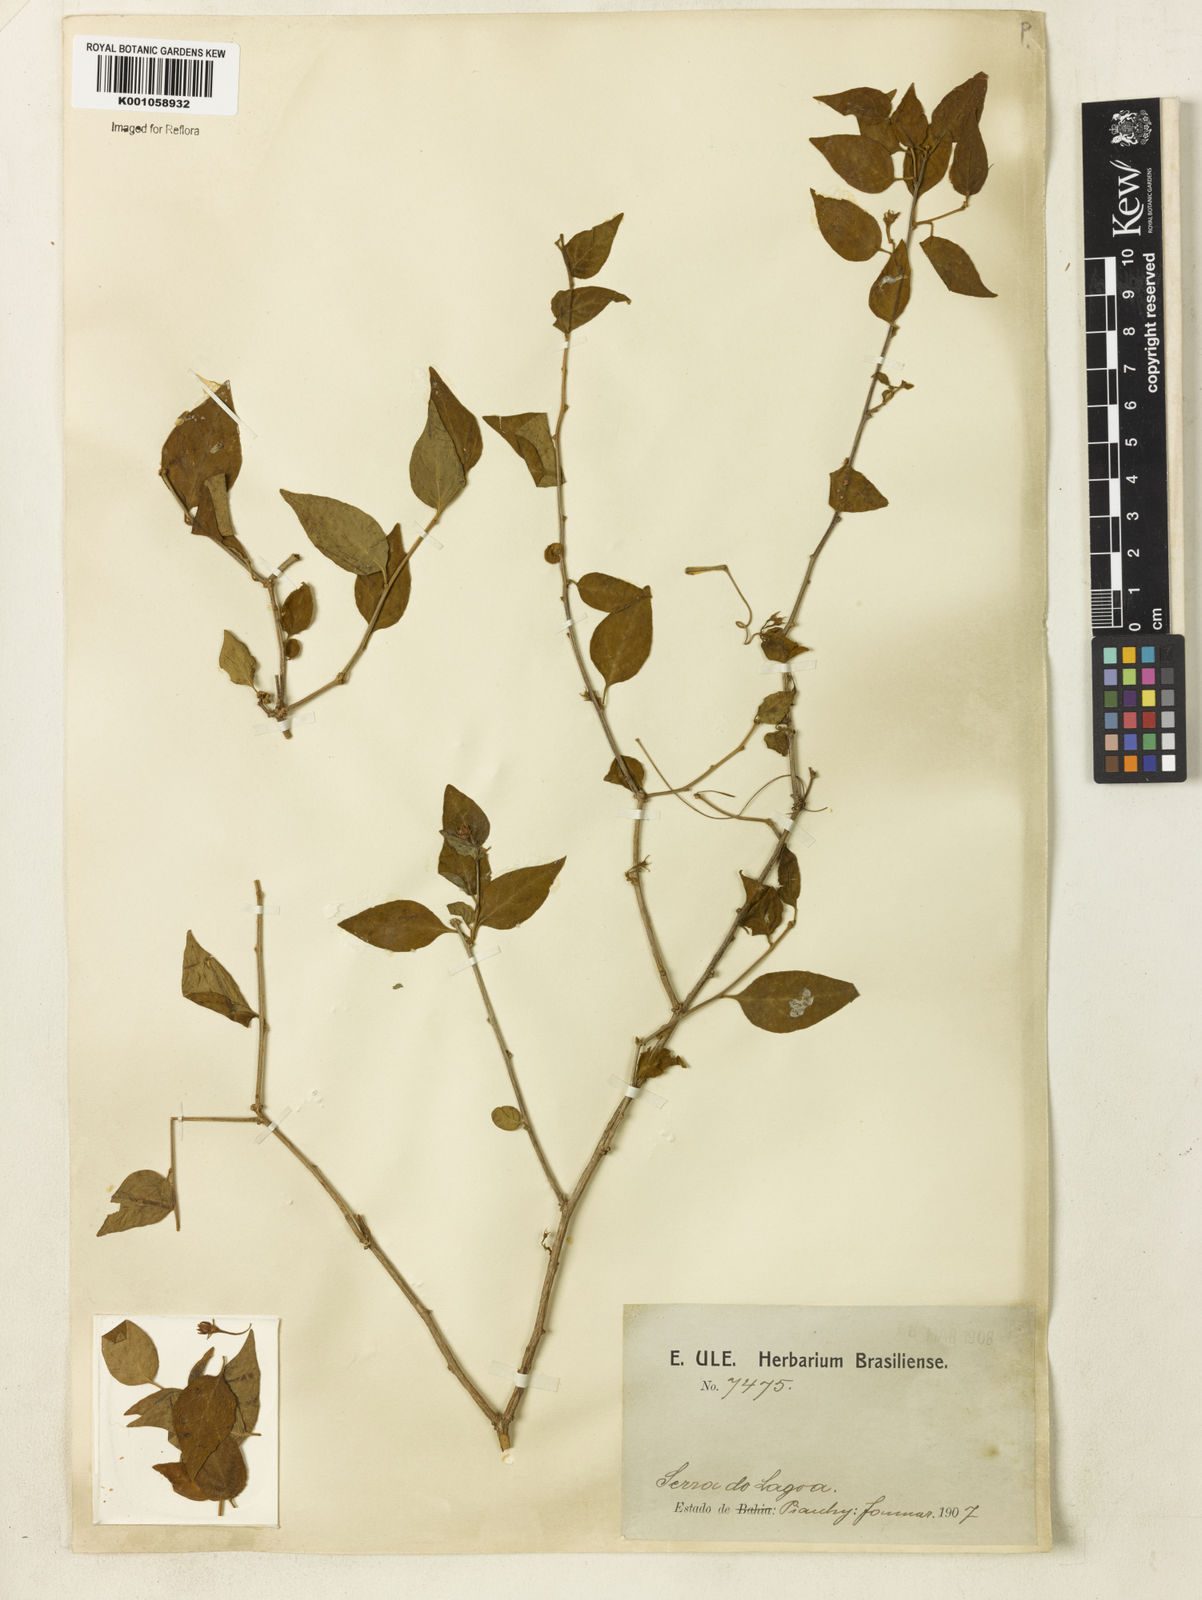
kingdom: Plantae
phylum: Tracheophyta
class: Magnoliopsida
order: Solanales
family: Solanaceae
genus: Solanum
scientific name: Solanum eitenii
